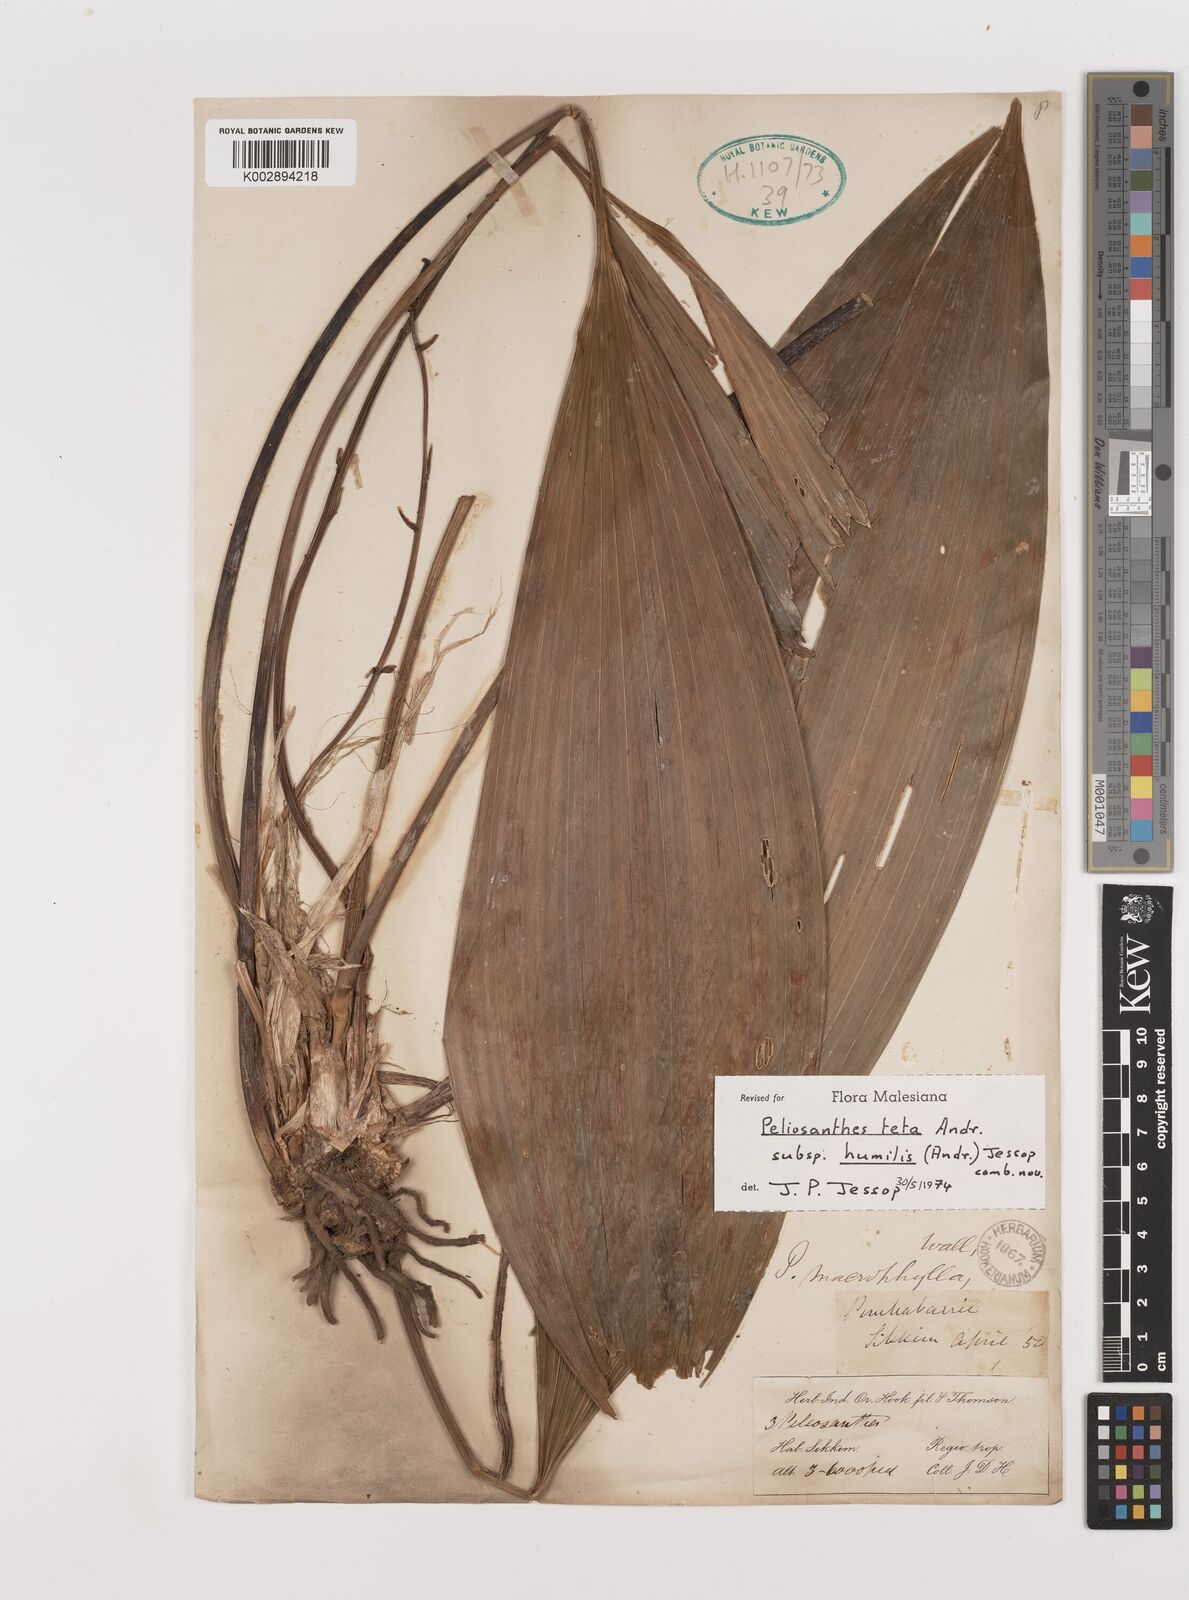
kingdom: Plantae
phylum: Tracheophyta
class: Liliopsida
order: Asparagales
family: Asparagaceae
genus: Peliosanthes
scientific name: Peliosanthes teta
